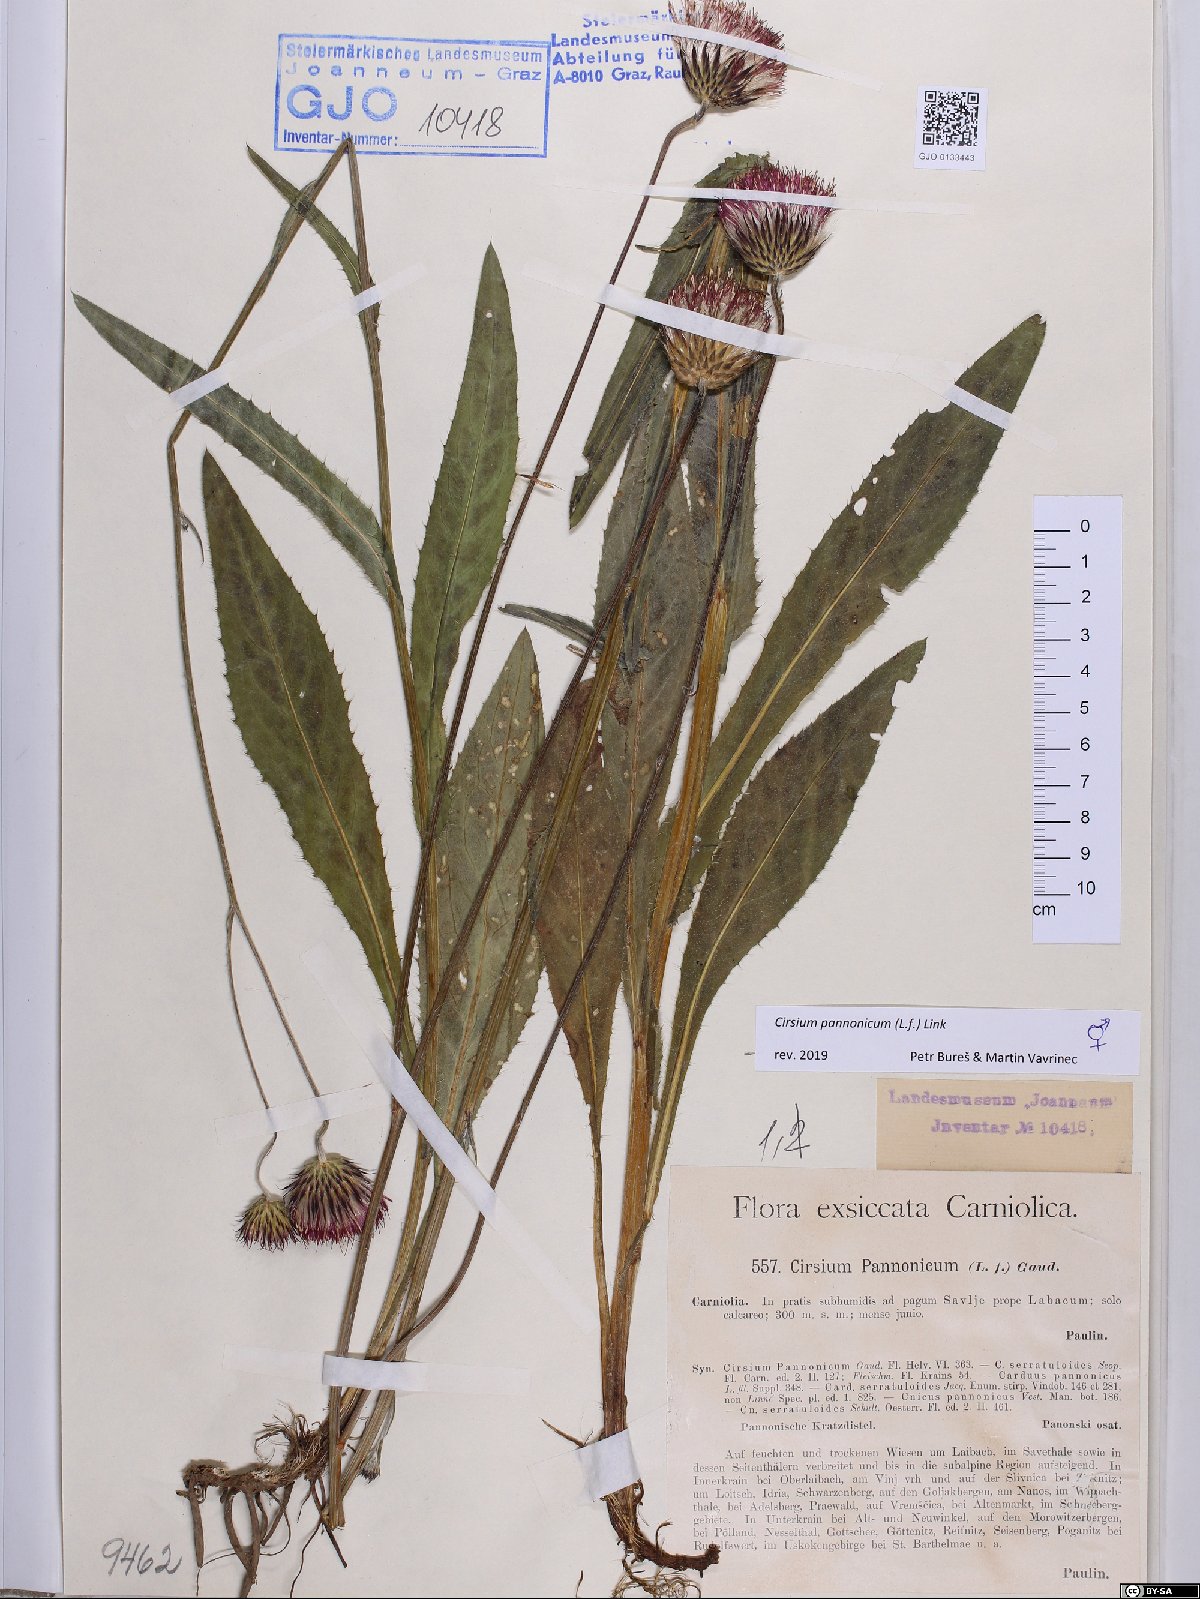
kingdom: Plantae
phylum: Tracheophyta
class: Magnoliopsida
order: Asterales
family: Asteraceae
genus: Cirsium
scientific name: Cirsium pannonicum
